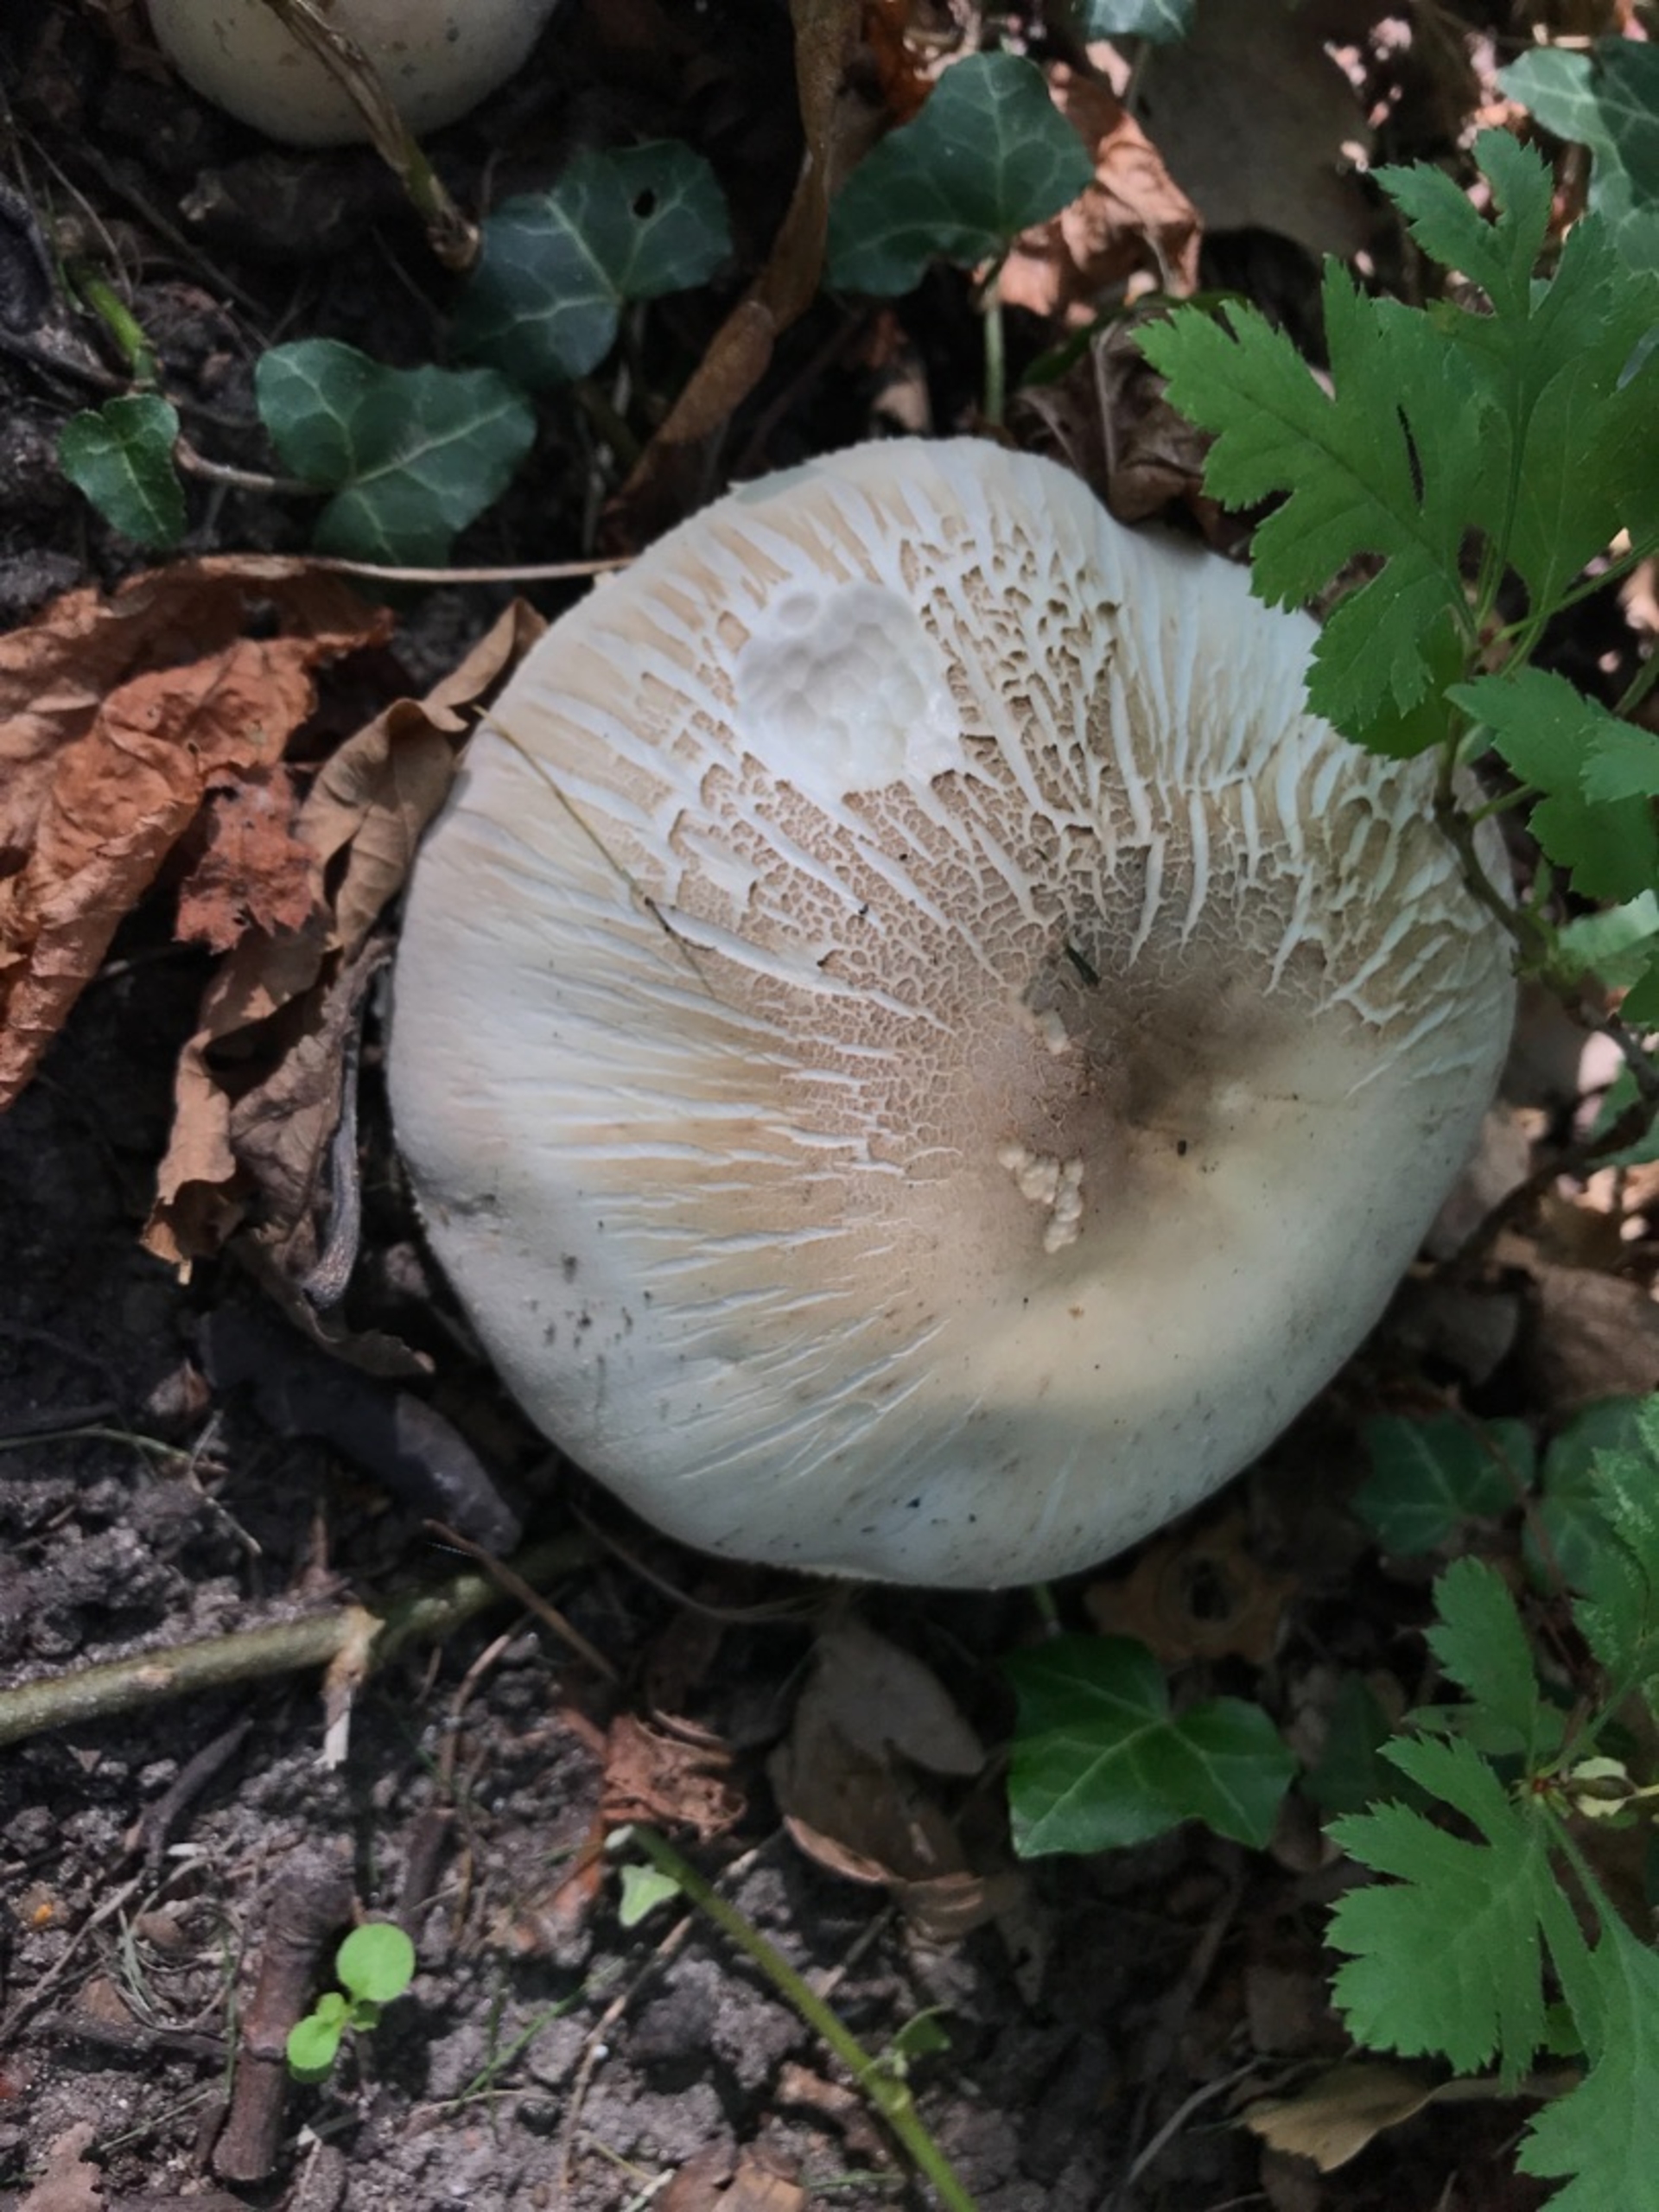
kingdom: Fungi
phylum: Basidiomycota
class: Agaricomycetes
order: Agaricales
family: Agaricaceae
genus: Agaricus
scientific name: Agaricus
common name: Champignon
